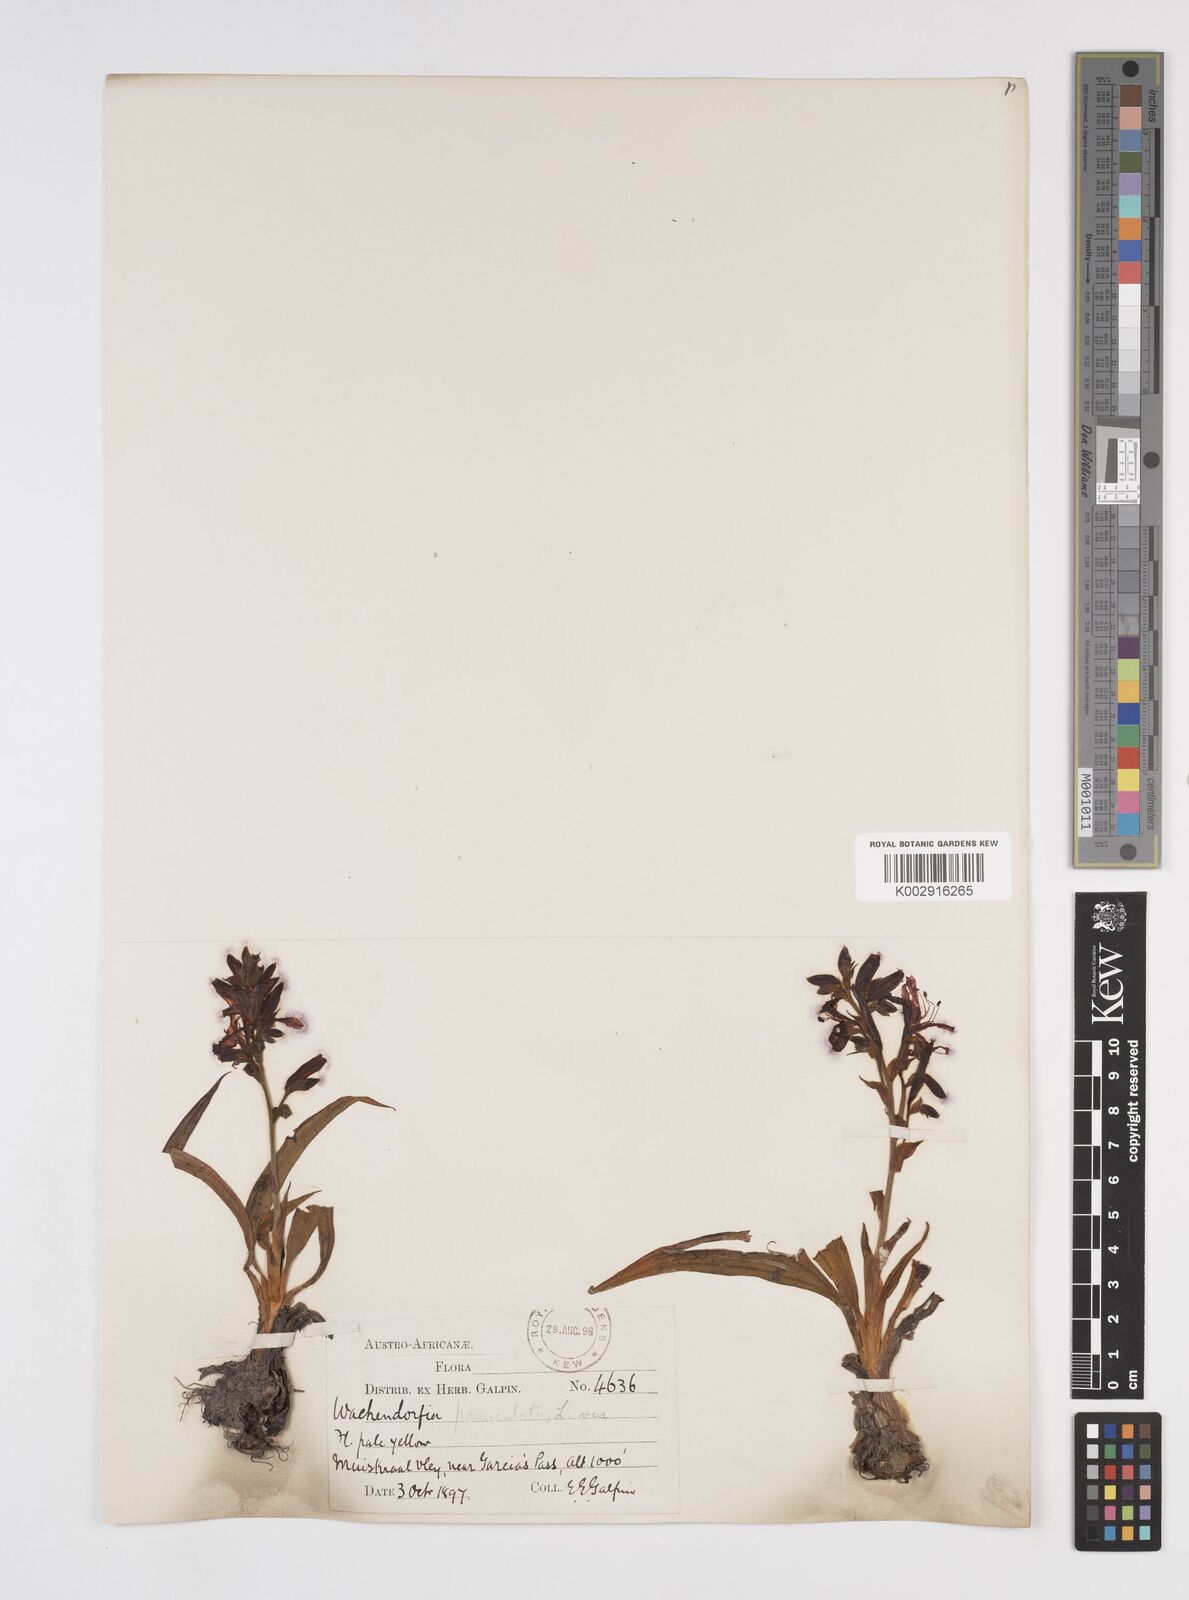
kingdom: Plantae
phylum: Tracheophyta
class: Liliopsida
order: Commelinales
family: Haemodoraceae
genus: Wachendorfia
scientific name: Wachendorfia paniculata
